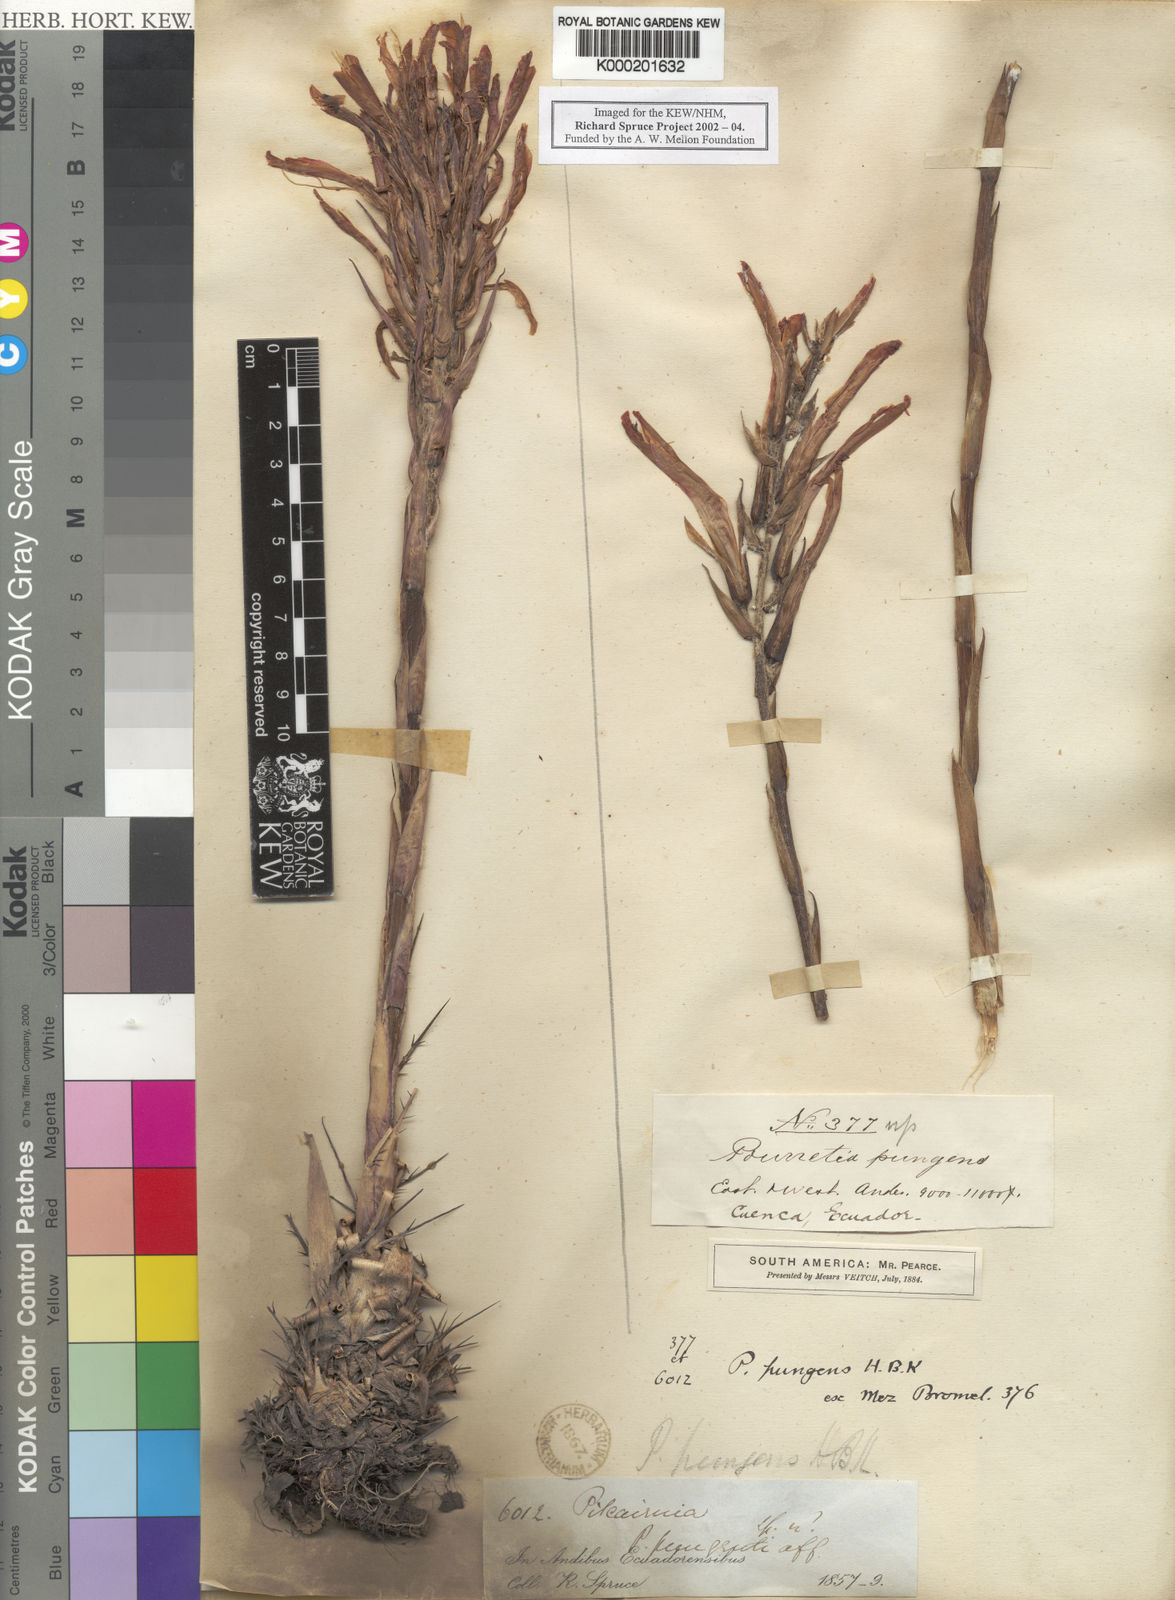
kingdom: Plantae
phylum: Tracheophyta
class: Liliopsida
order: Poales
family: Bromeliaceae
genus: Pitcairnia
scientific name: Pitcairnia pungens
